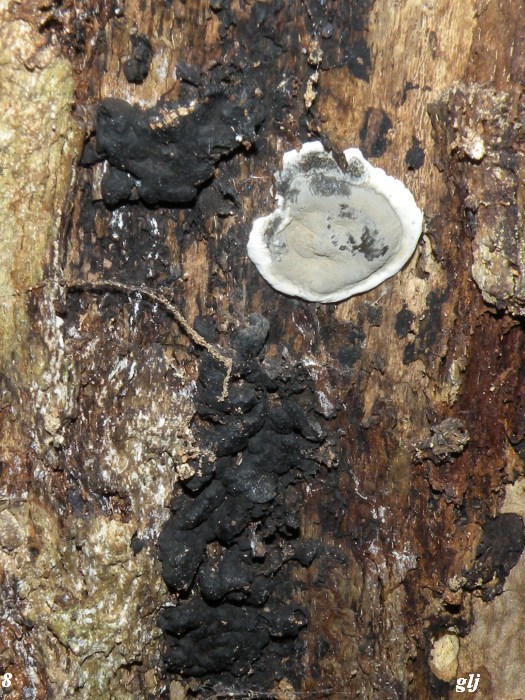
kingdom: Fungi
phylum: Ascomycota
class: Sordariomycetes
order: Xylariales
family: Xylariaceae
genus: Kretzschmaria
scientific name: Kretzschmaria deusta
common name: stor kulsvamp
